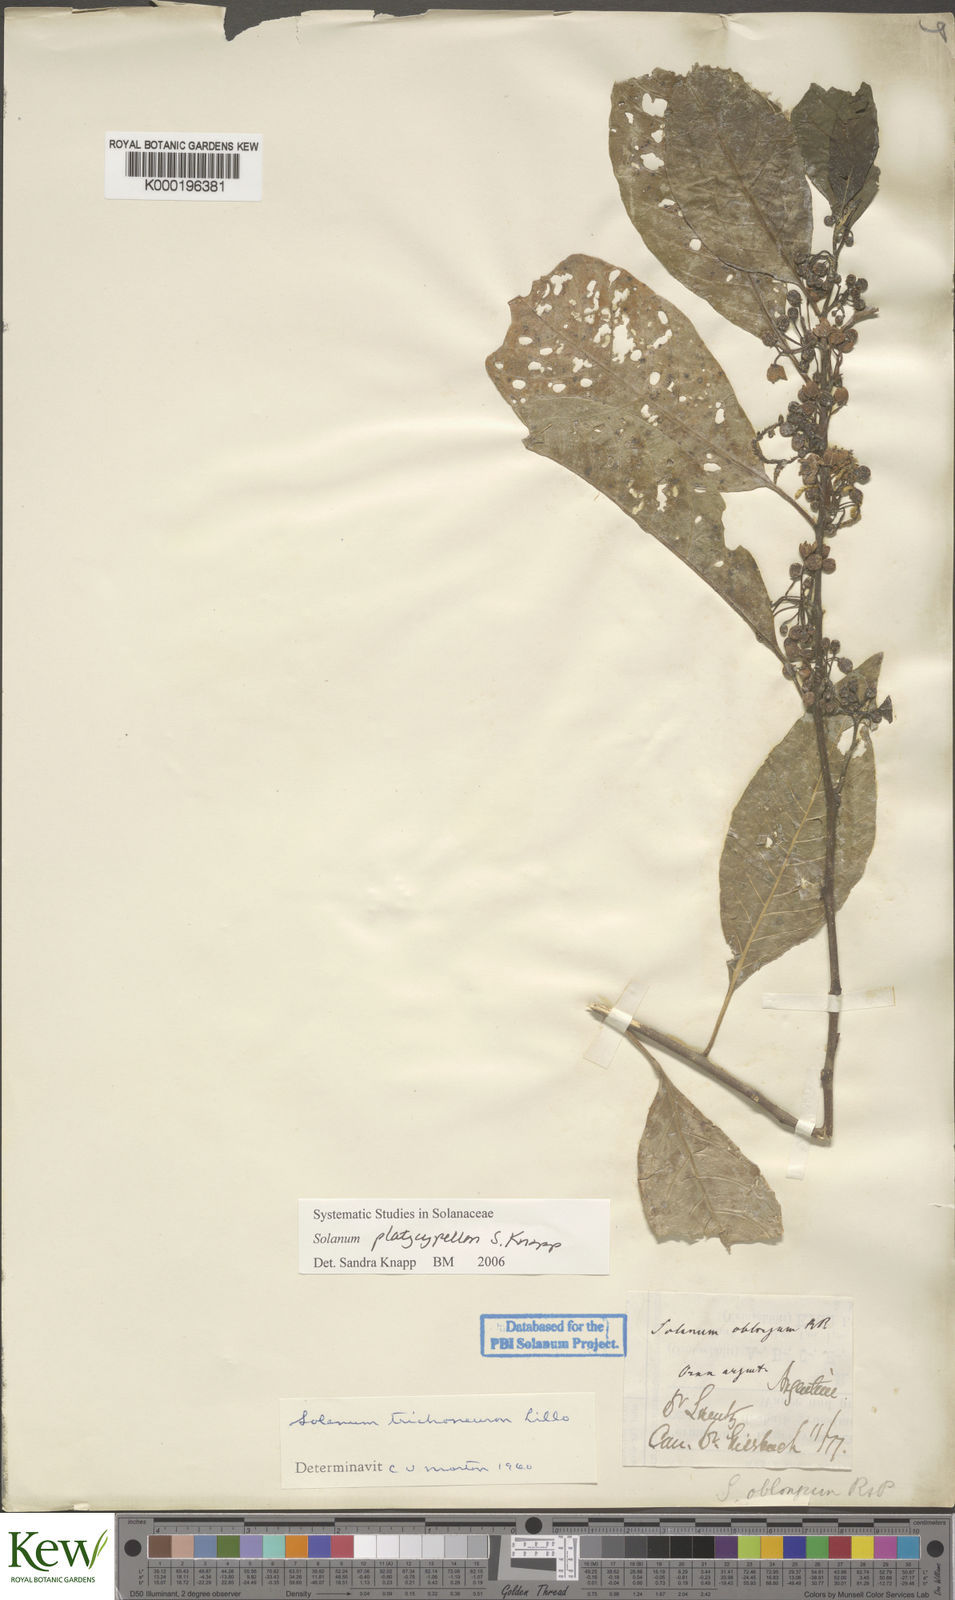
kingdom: Plantae
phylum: Tracheophyta
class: Magnoliopsida
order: Solanales
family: Solanaceae
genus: Solanum
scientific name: Solanum platycypellon
